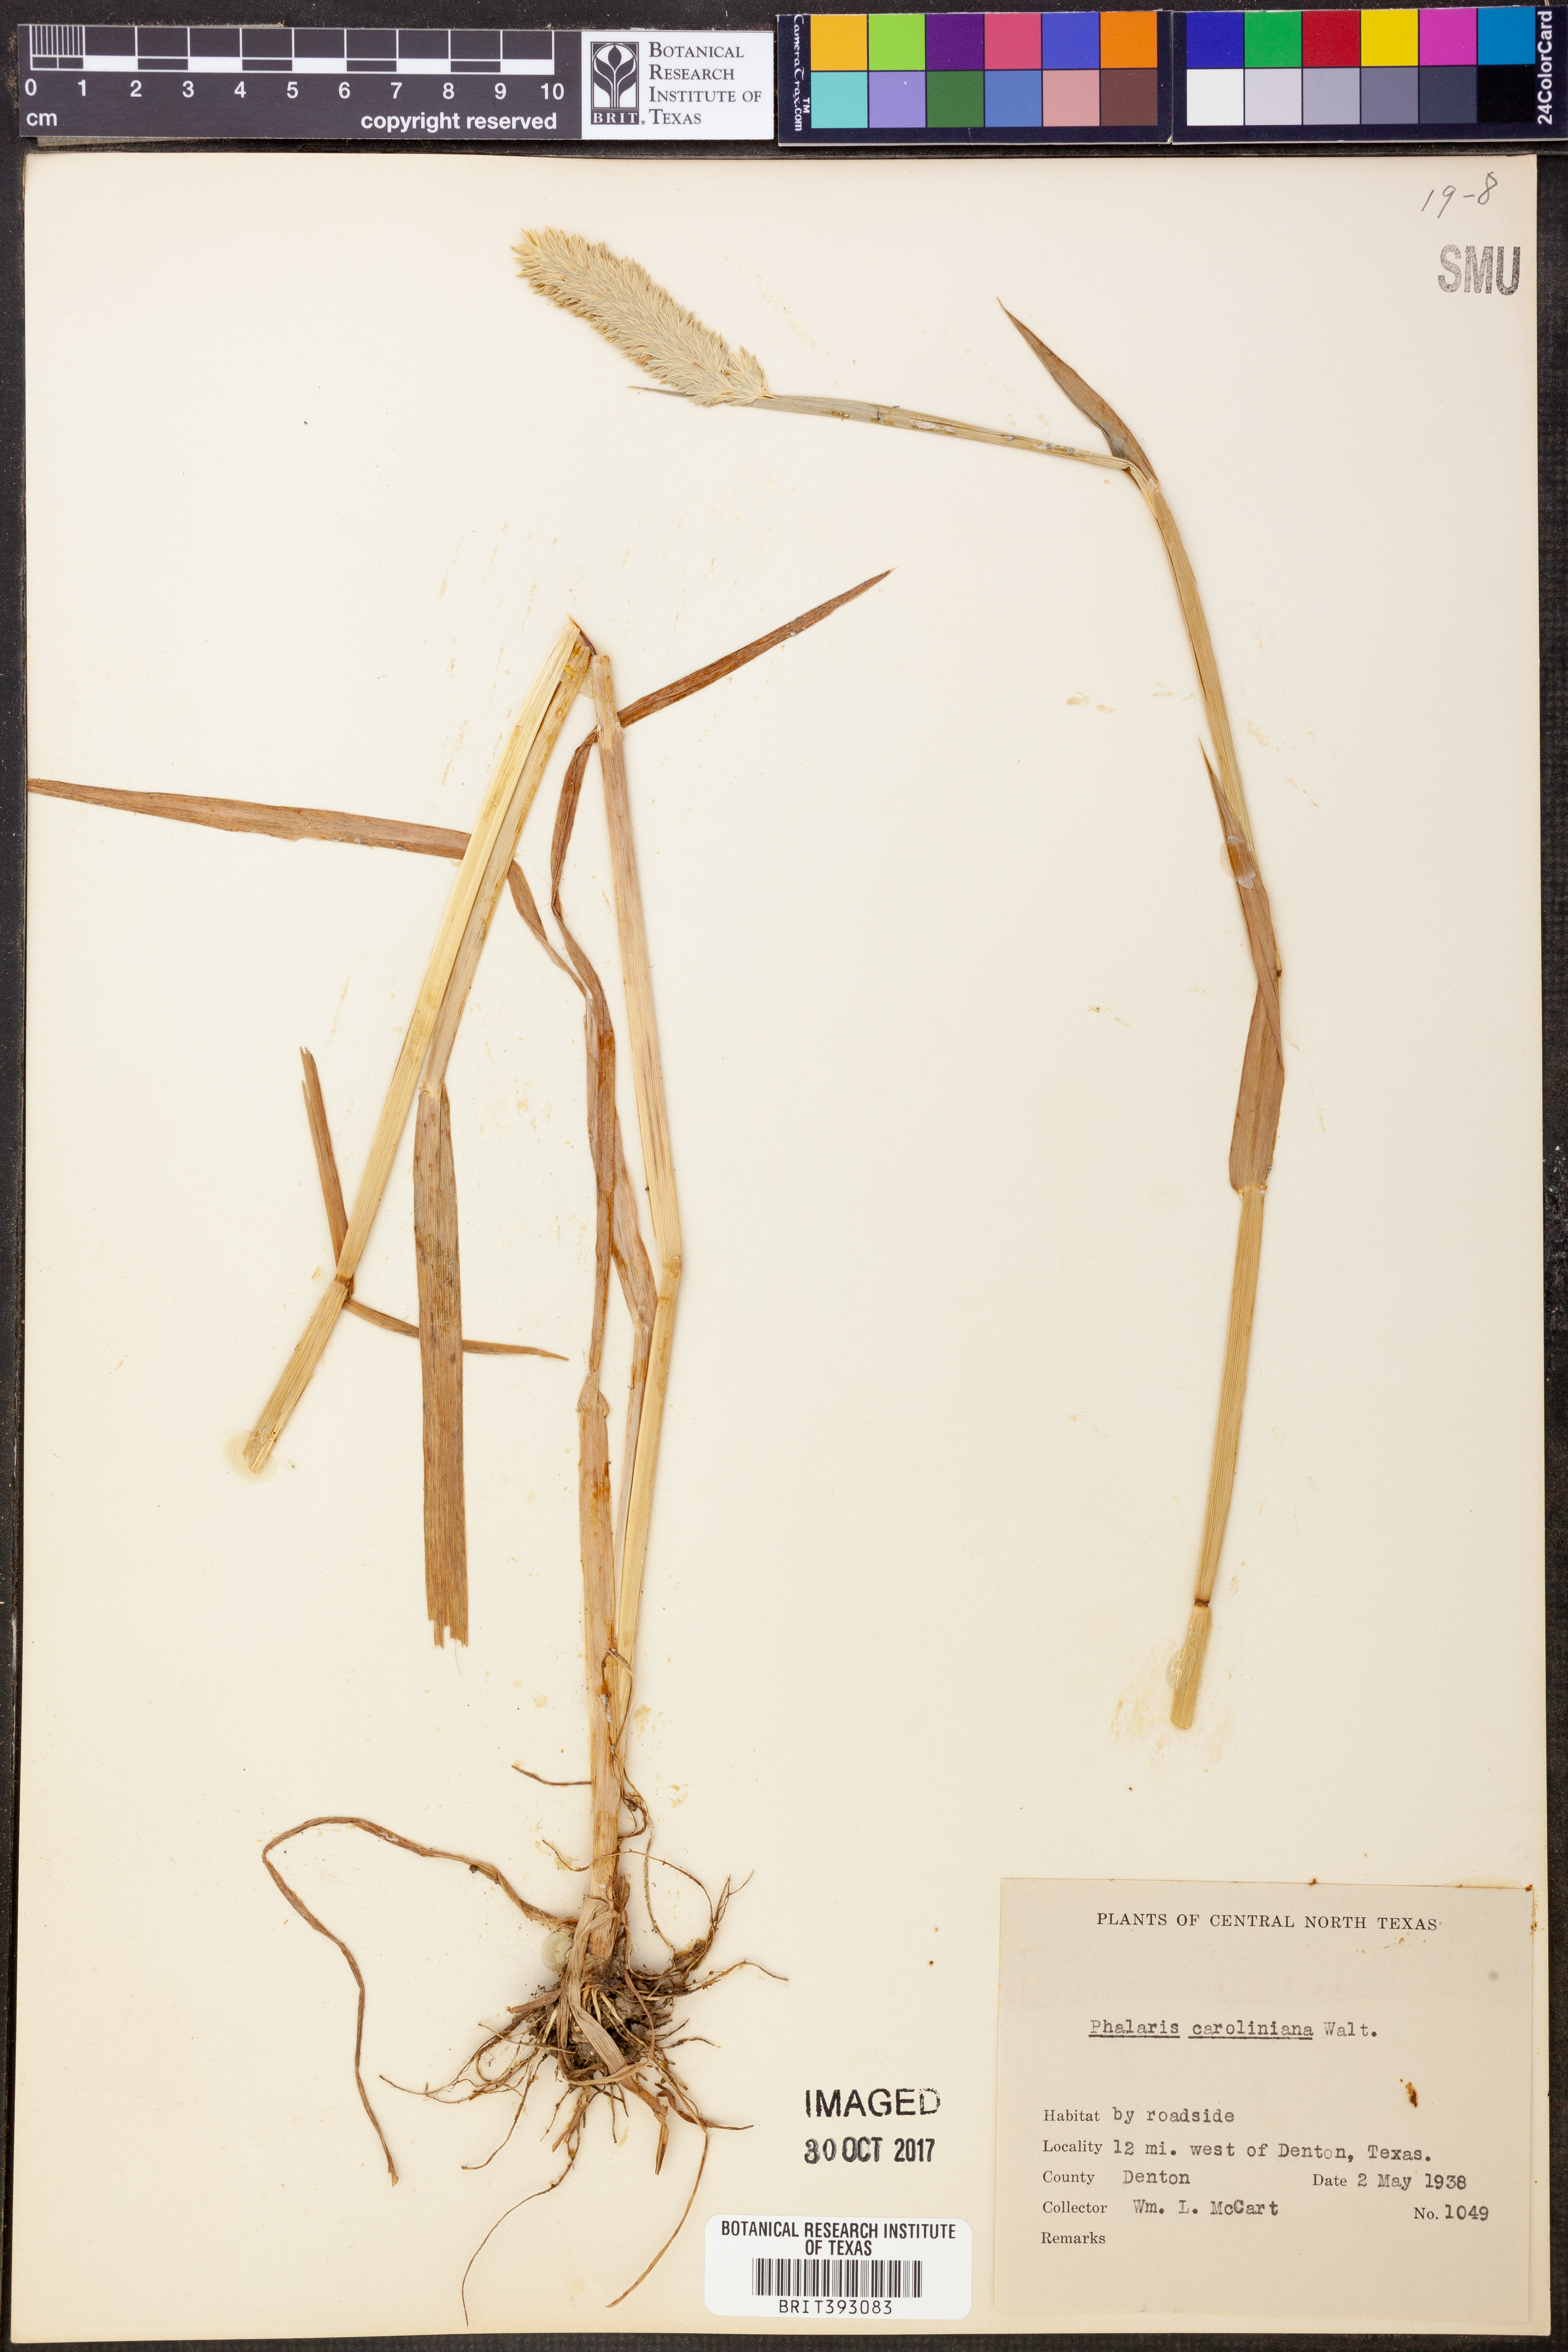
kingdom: Plantae
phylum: Tracheophyta
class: Liliopsida
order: Poales
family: Poaceae
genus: Phalaris
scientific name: Phalaris caroliniana
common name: May grass
